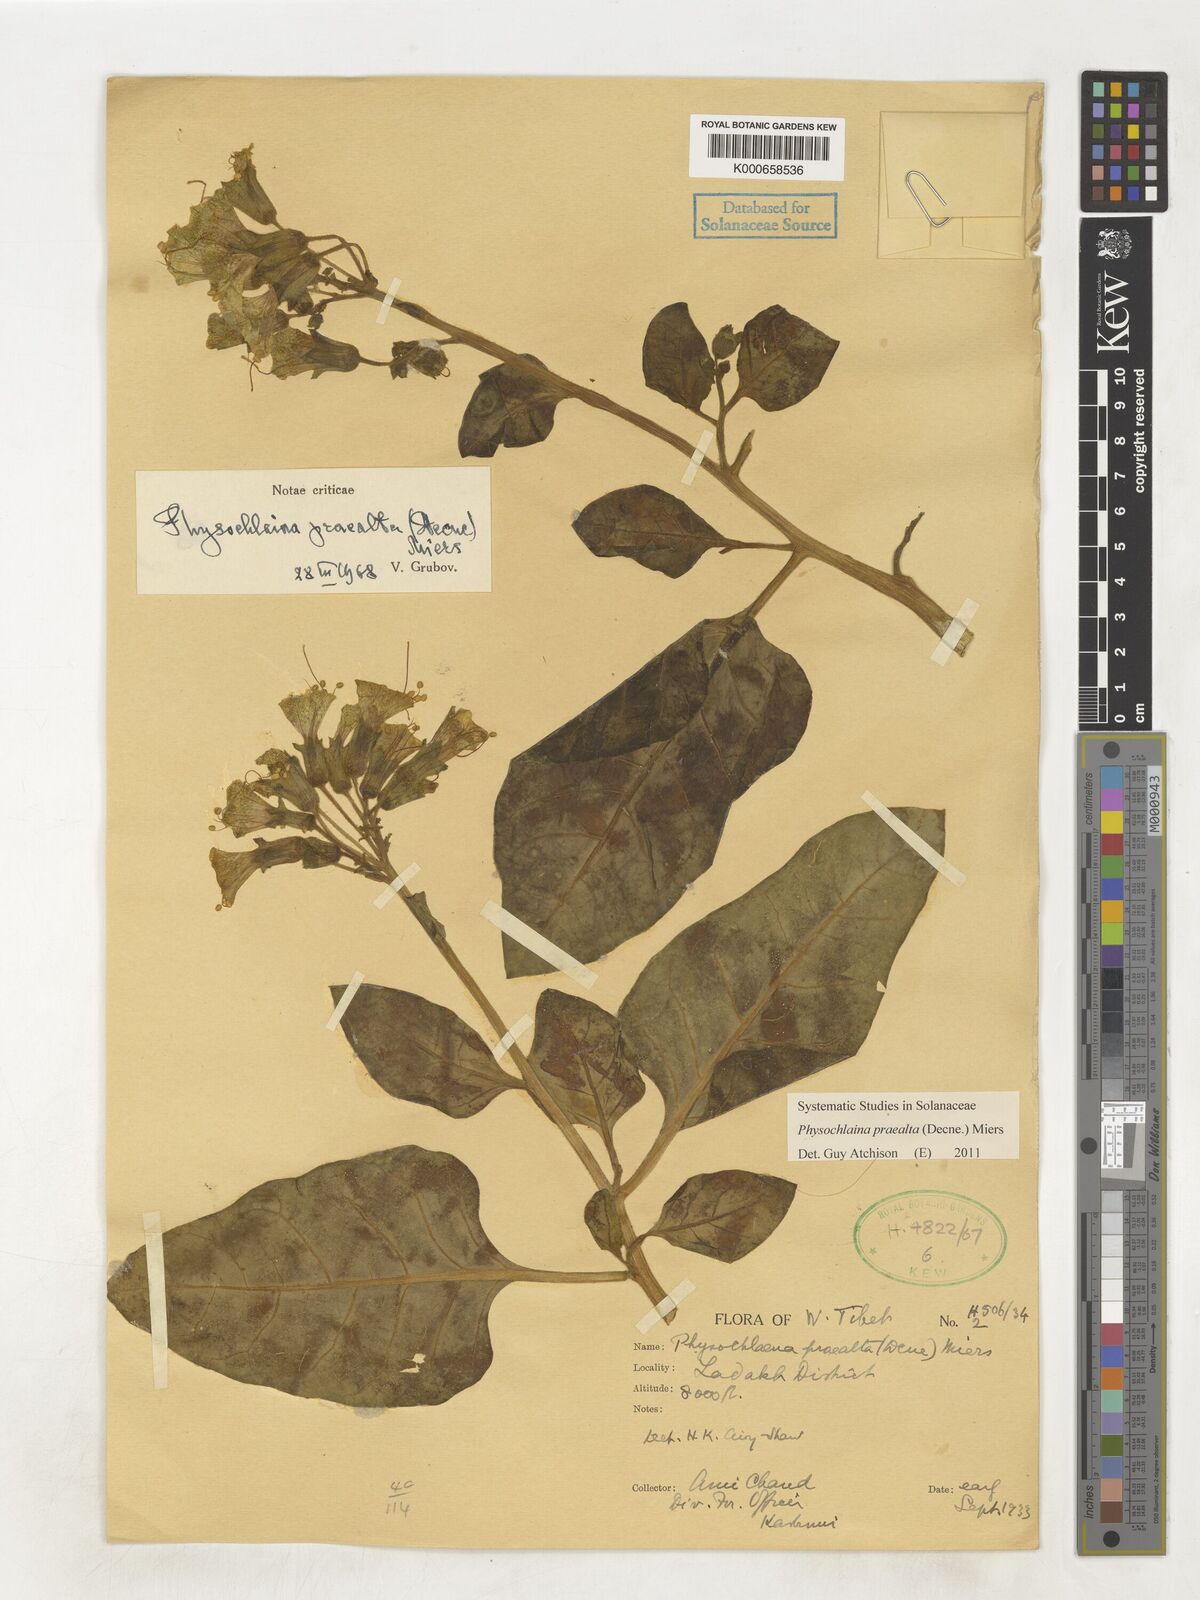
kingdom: Plantae
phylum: Tracheophyta
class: Magnoliopsida
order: Solanales
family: Solanaceae
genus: Physochlaina
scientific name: Physochlaina praealta
